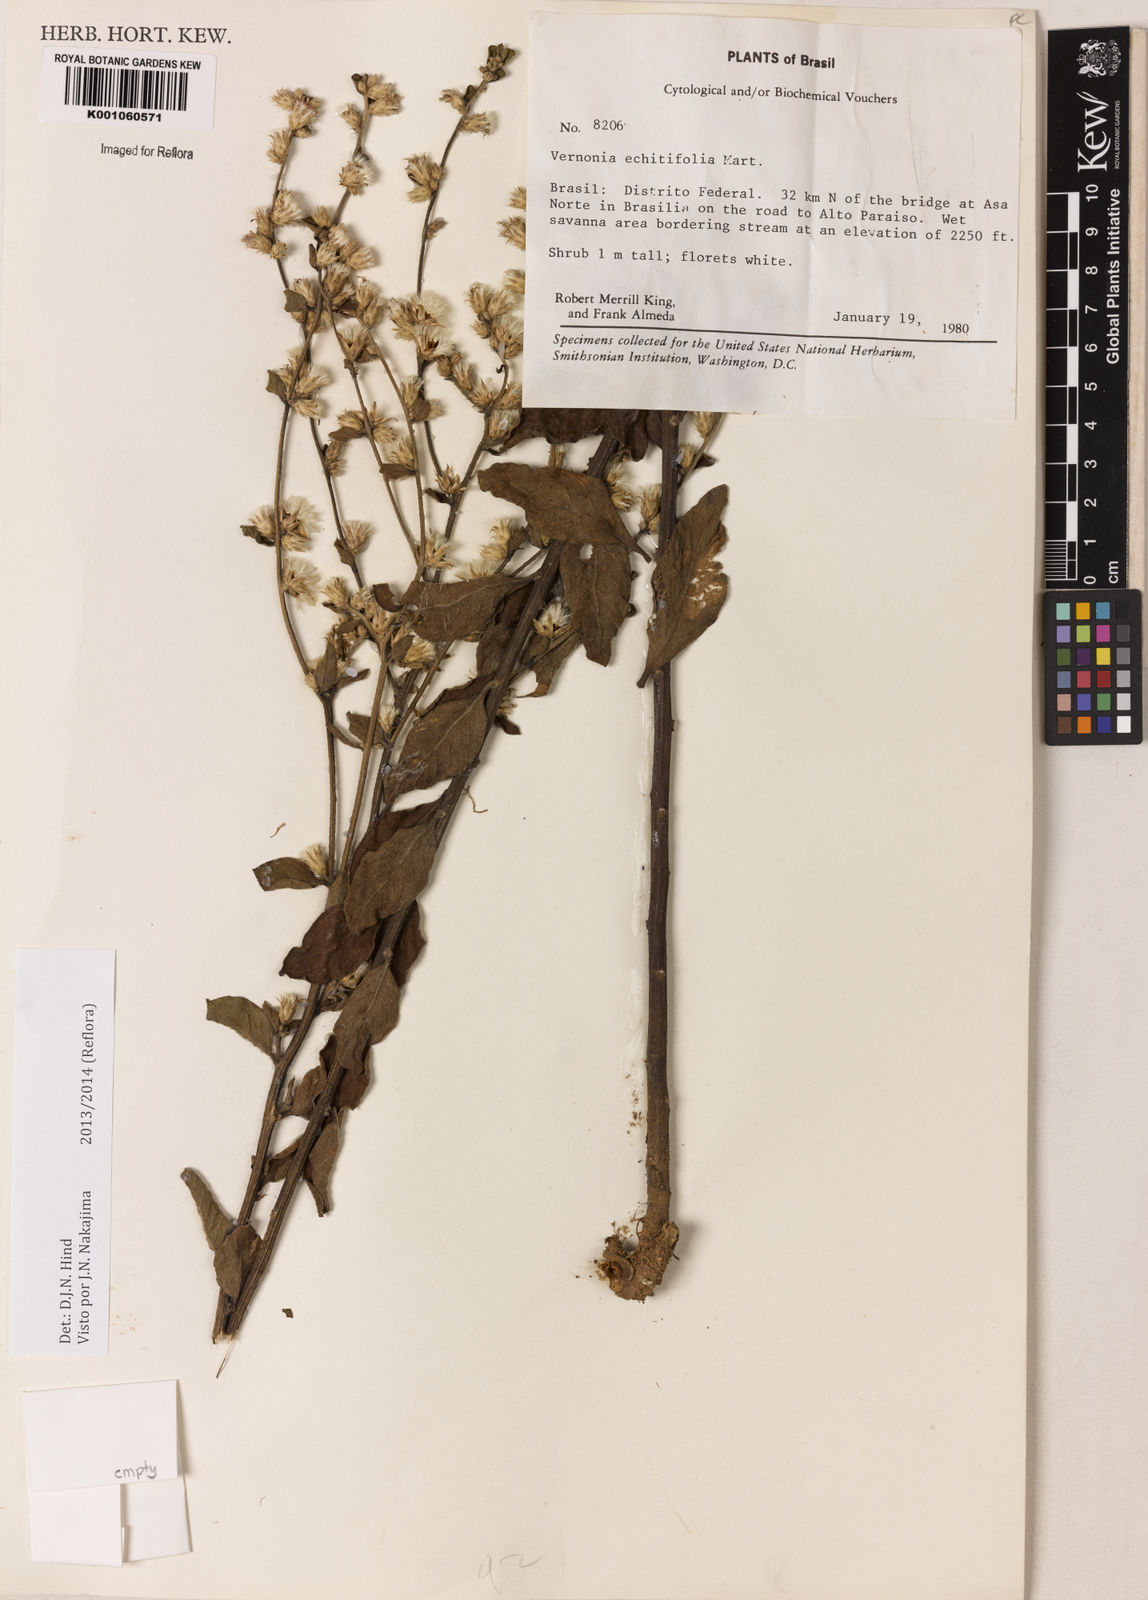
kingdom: Plantae
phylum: Tracheophyta
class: Magnoliopsida
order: Asterales
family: Asteraceae
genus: Acilepidopsis
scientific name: Acilepidopsis echitifolia
